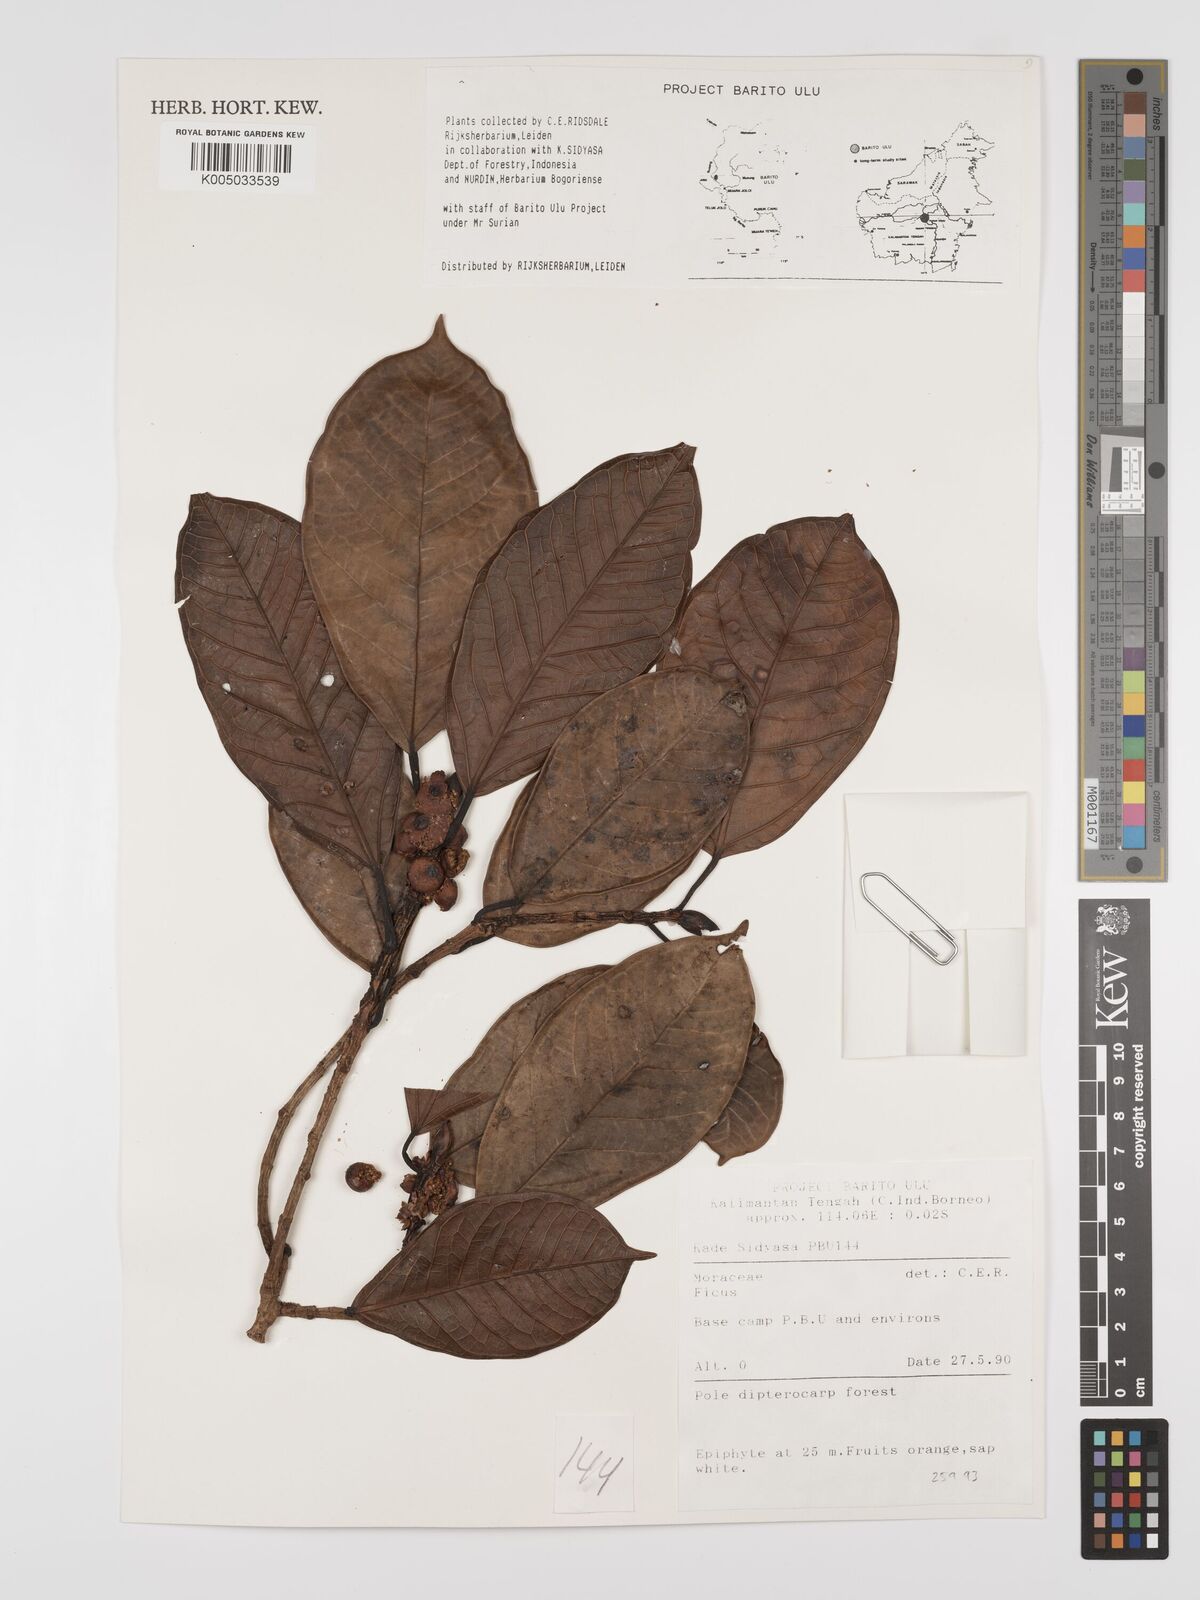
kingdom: Plantae
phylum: Tracheophyta
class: Magnoliopsida
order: Rosales
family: Moraceae
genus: Ficus
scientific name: Ficus
